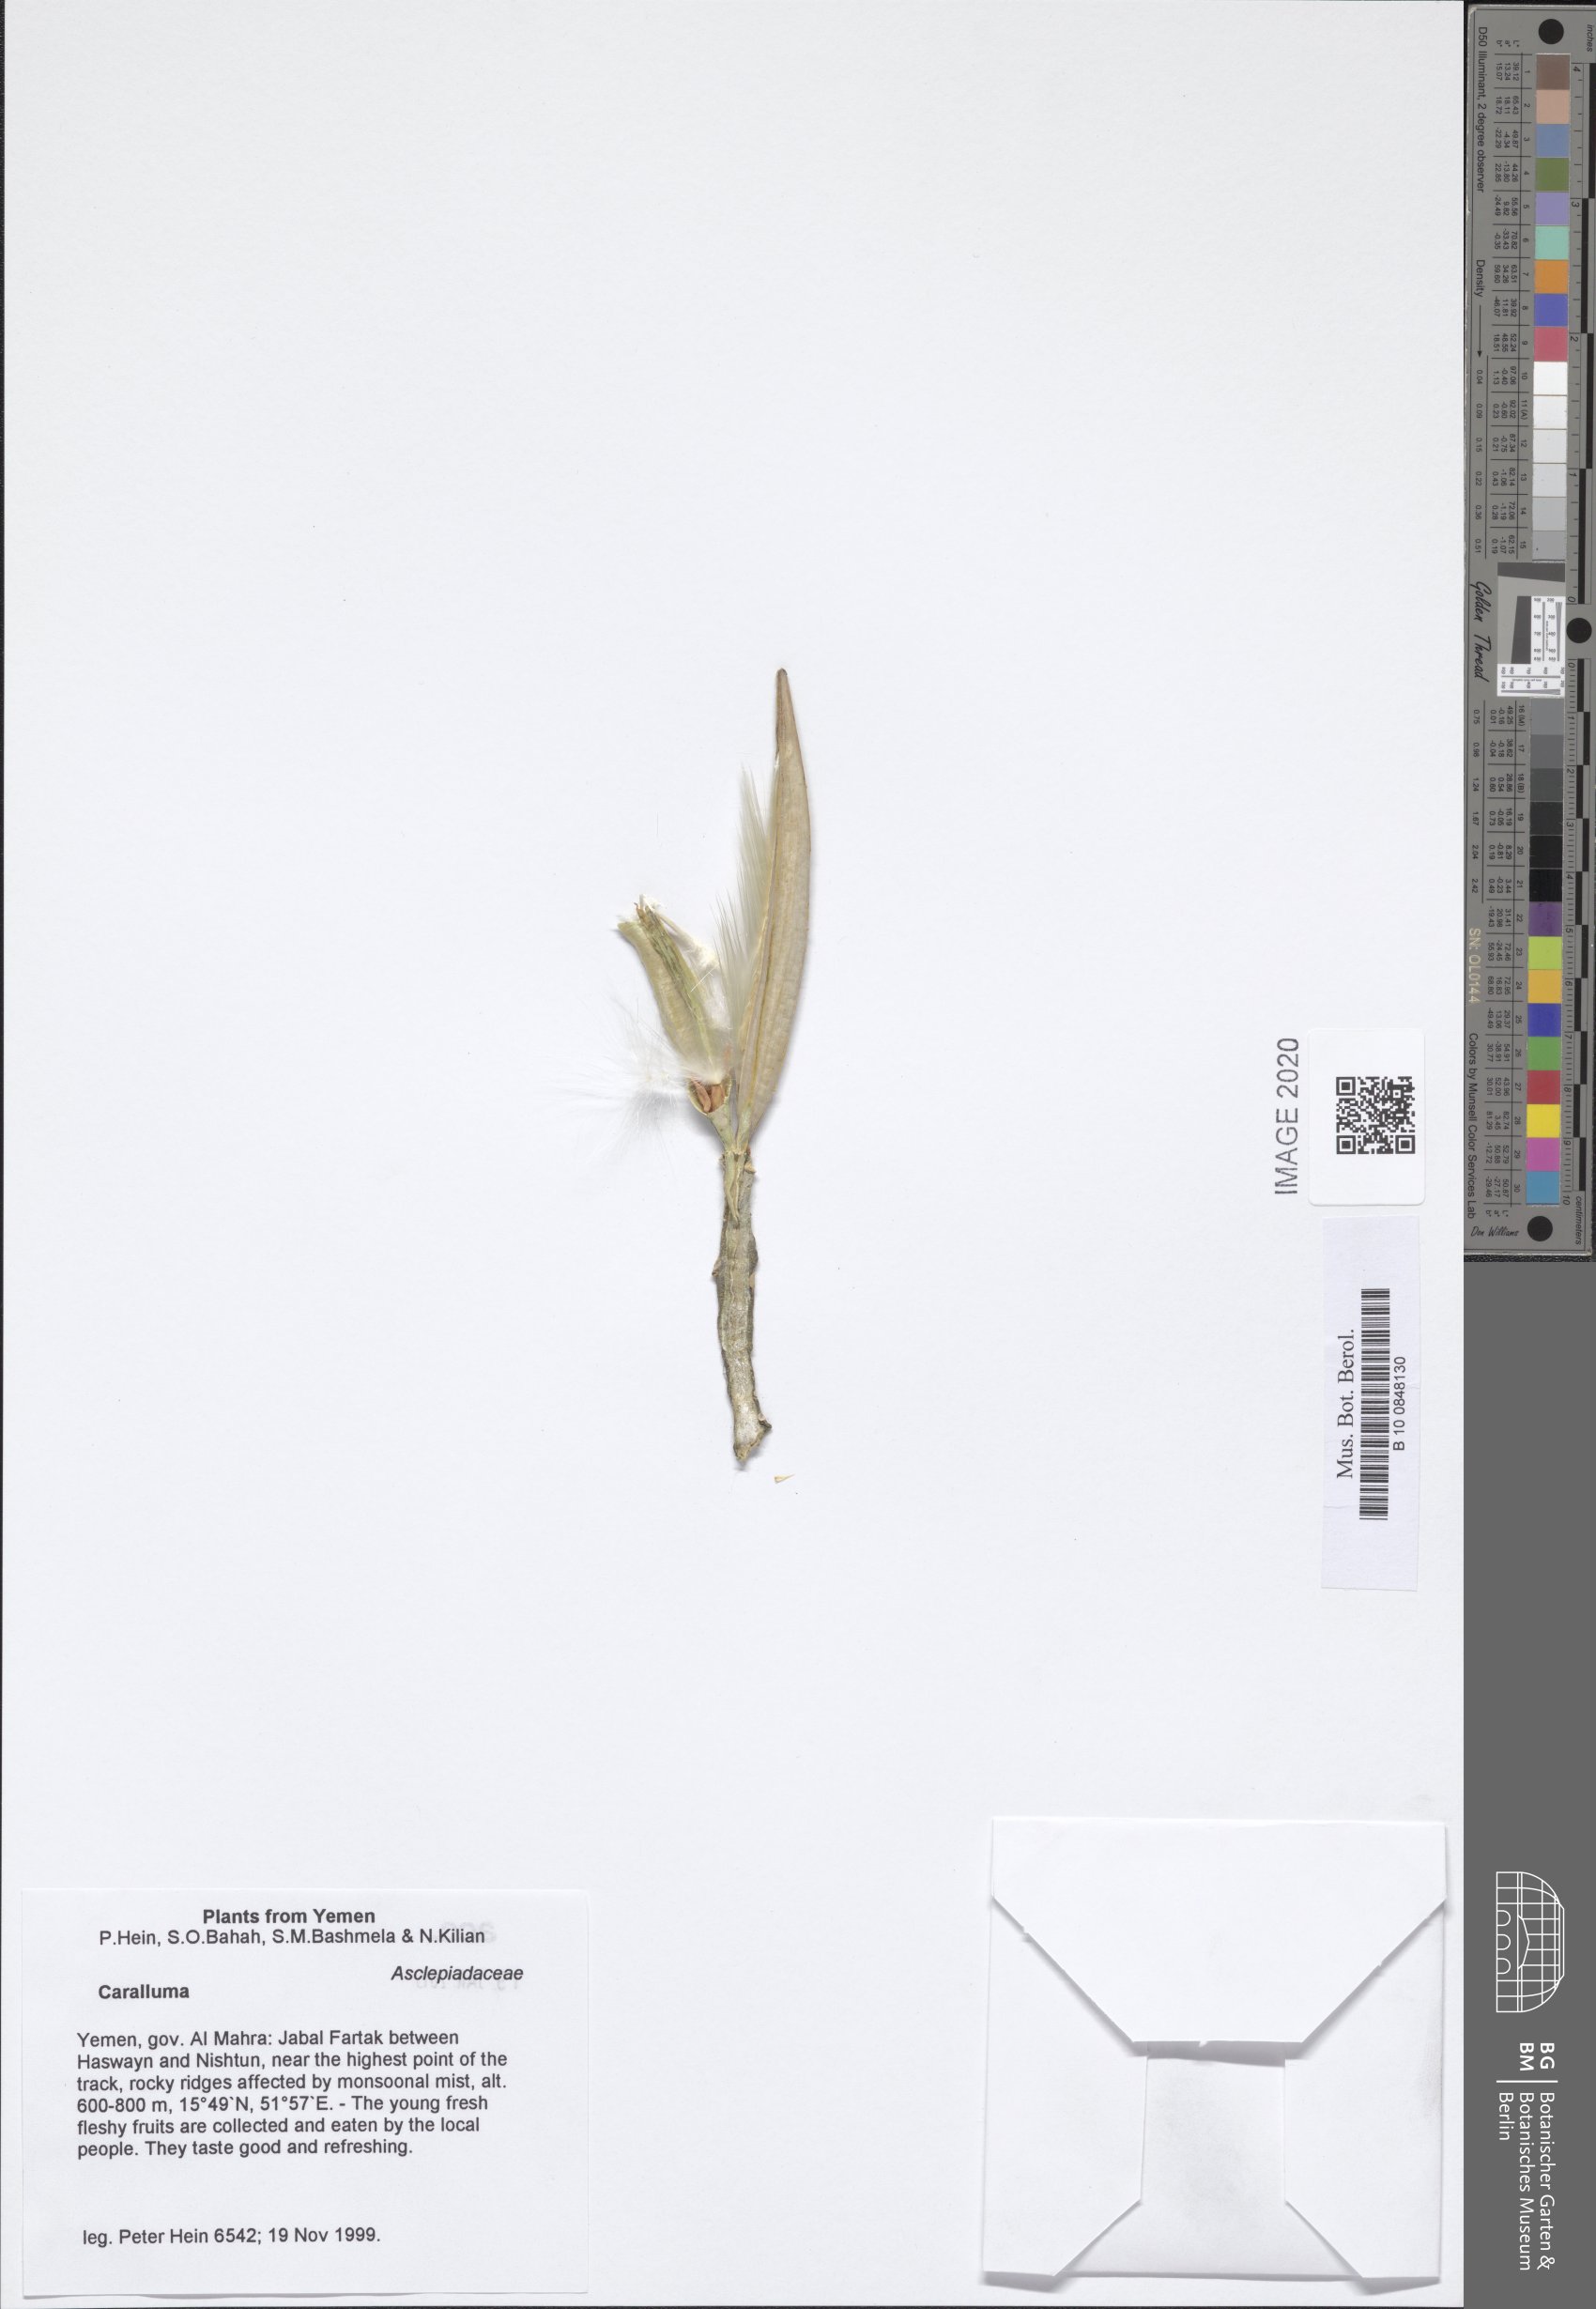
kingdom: Plantae
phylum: Tracheophyta
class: Magnoliopsida
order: Gentianales
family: Apocynaceae
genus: Ceropegia
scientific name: Ceropegia quadrangula
